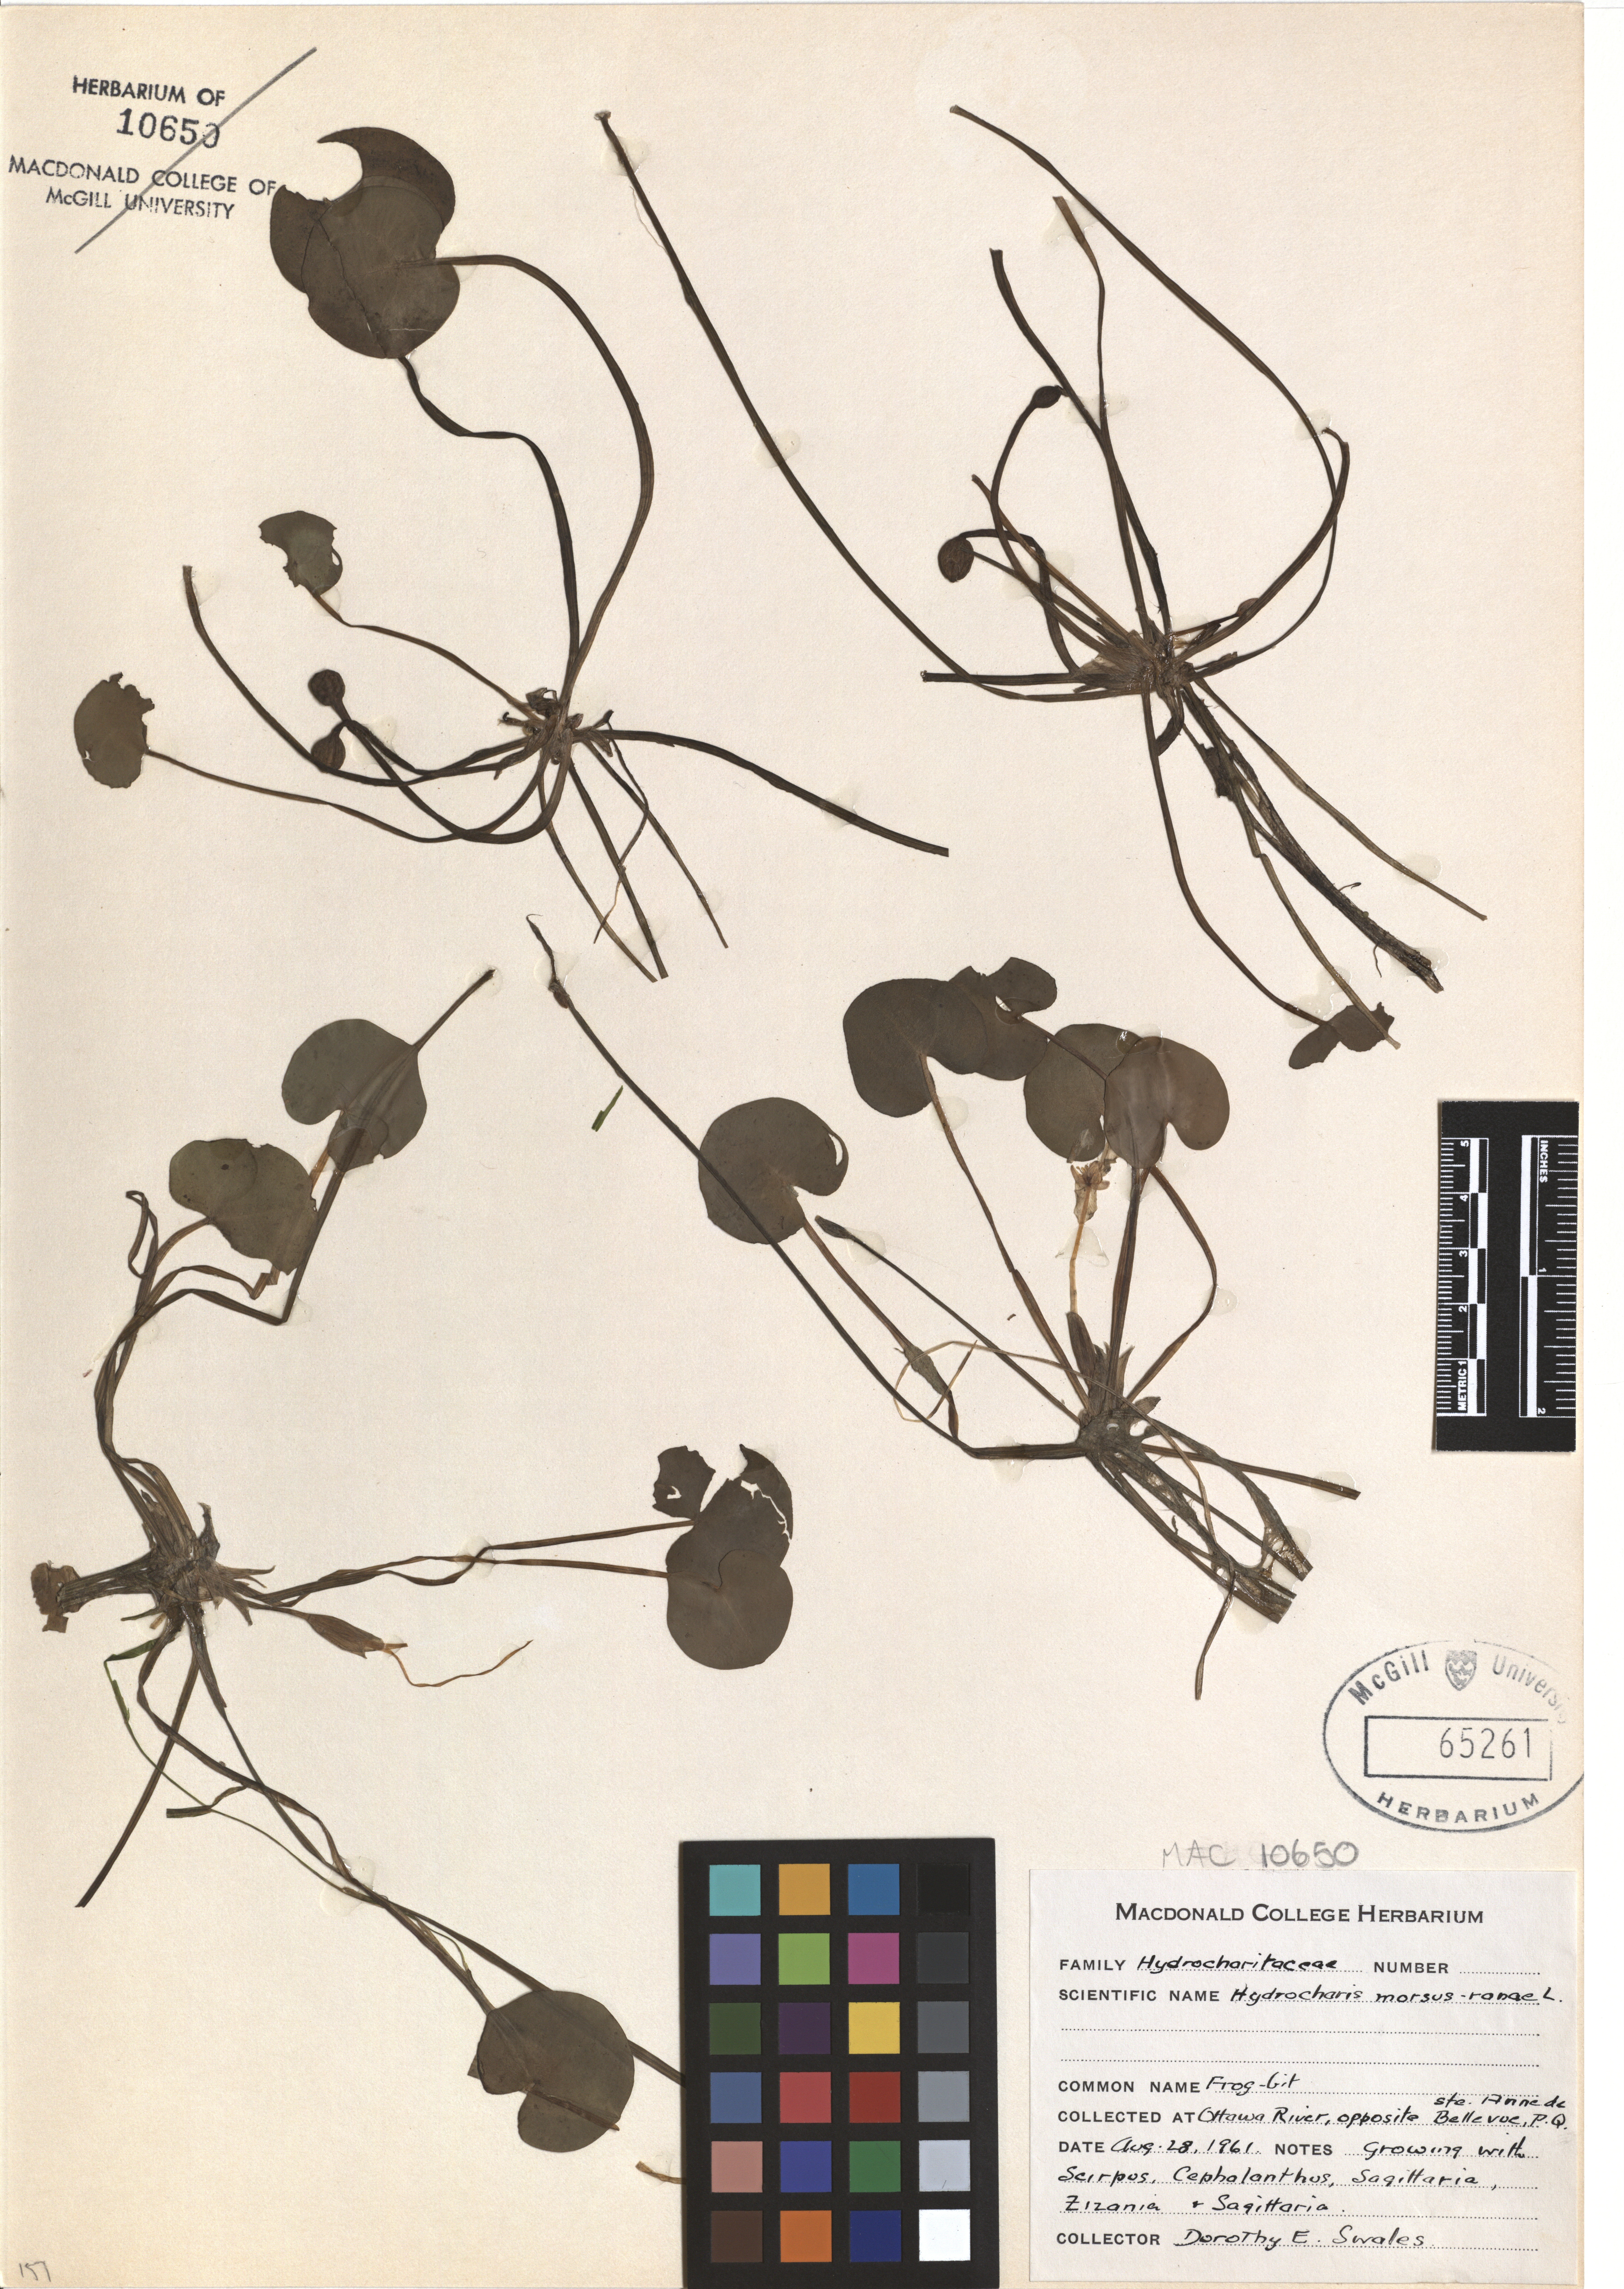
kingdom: Plantae
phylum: Tracheophyta
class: Liliopsida
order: Alismatales
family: Hydrocharitaceae
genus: Hydrocharis
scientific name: Hydrocharis morsus-ranae
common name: Frogbit
